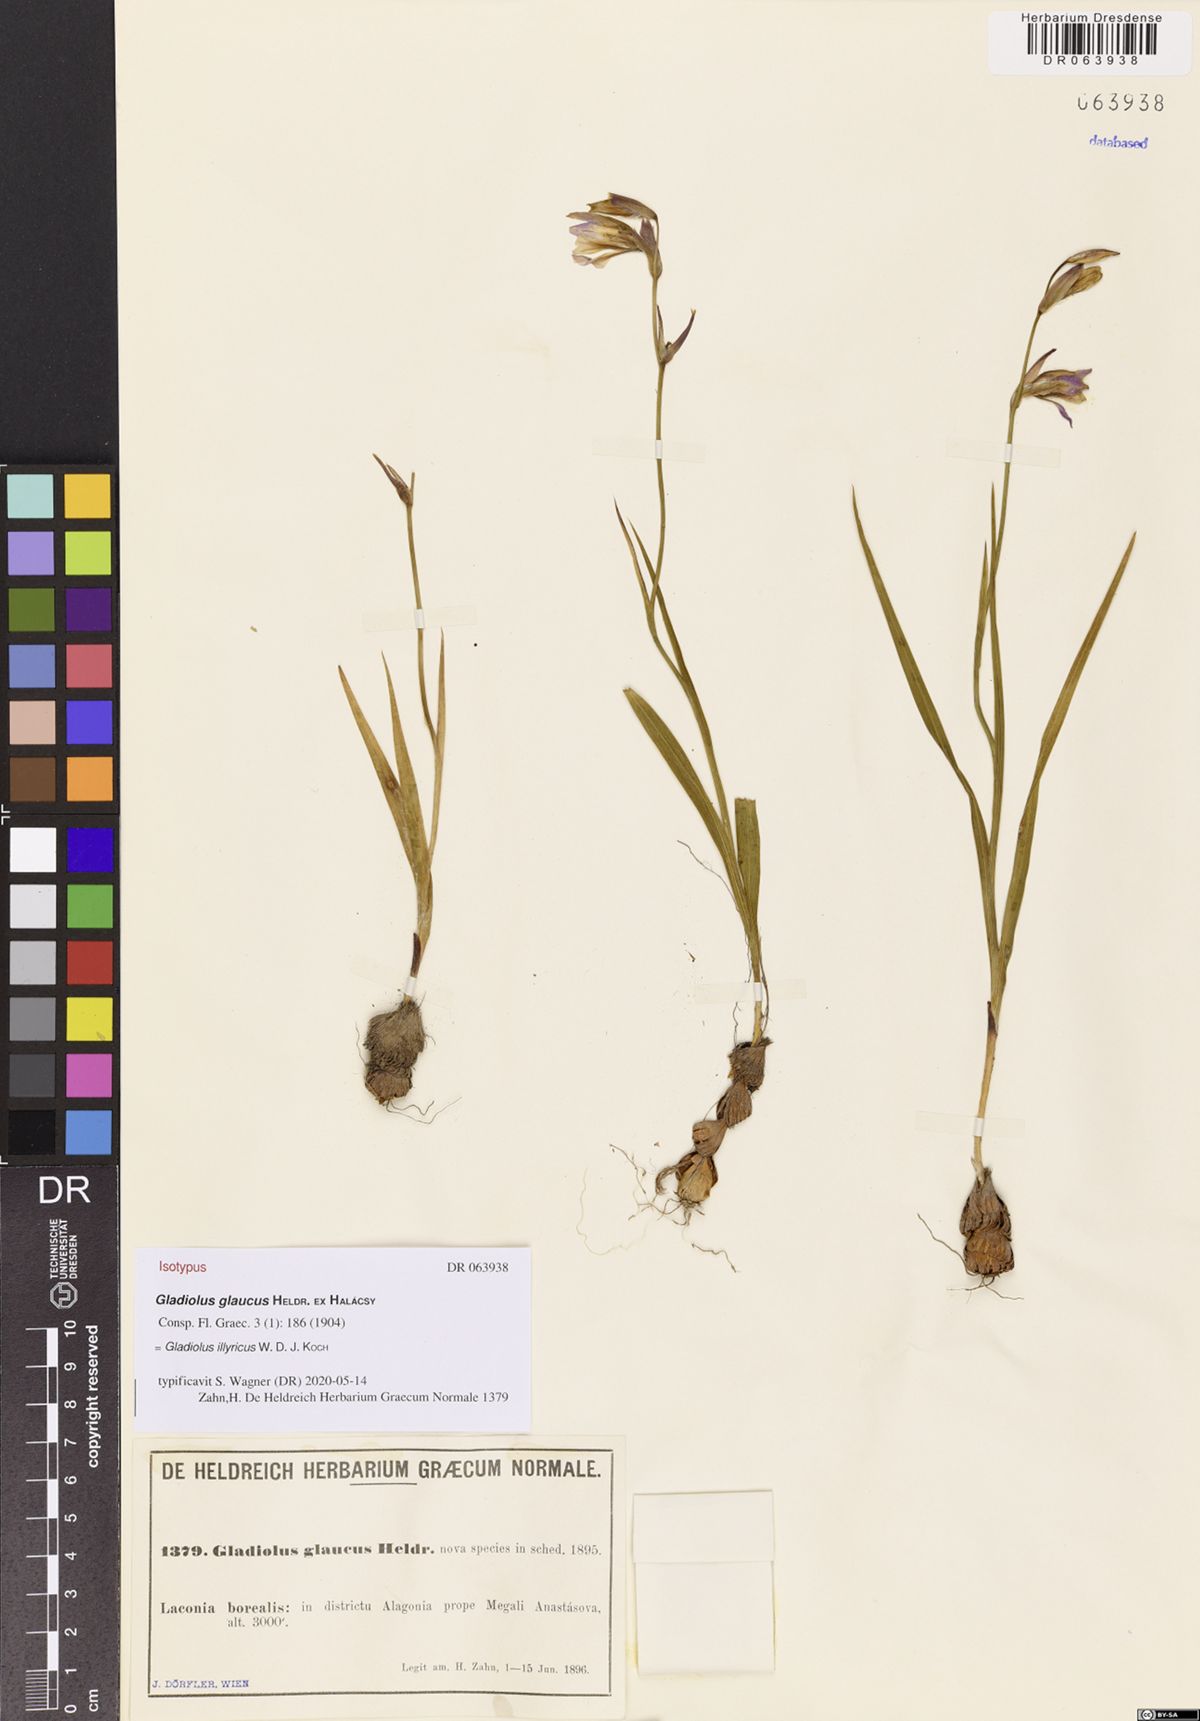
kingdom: Plantae
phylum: Tracheophyta
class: Liliopsida
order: Asparagales
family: Iridaceae
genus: Gladiolus
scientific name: Gladiolus illyricus
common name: Wild gladiolus
